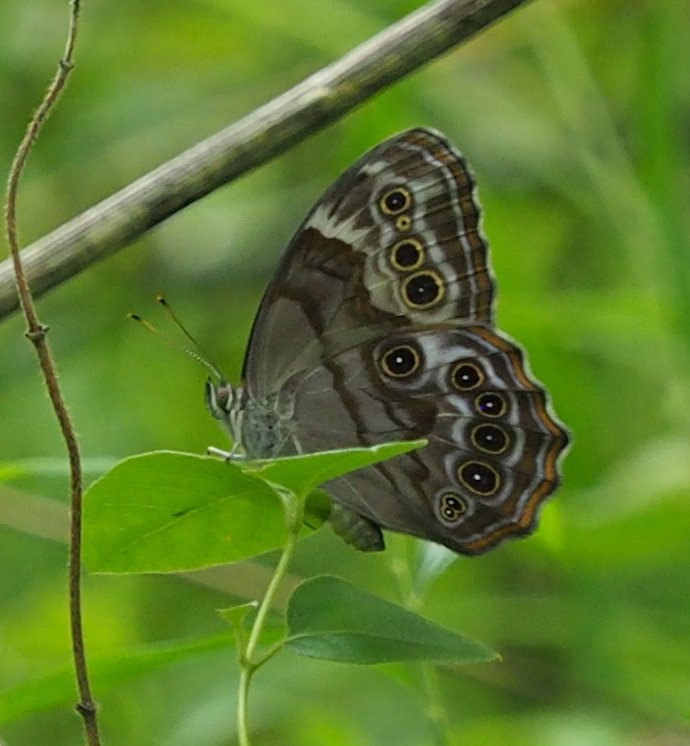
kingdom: Animalia
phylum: Arthropoda
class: Insecta
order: Lepidoptera
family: Nymphalidae
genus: Lethe
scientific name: Lethe anthedon
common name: Northern Pearly-Eye
